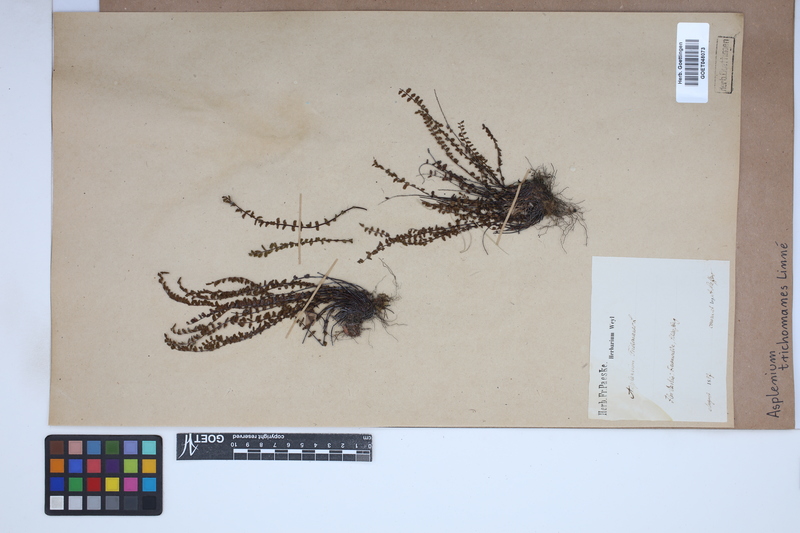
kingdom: Plantae
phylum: Tracheophyta
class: Polypodiopsida
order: Polypodiales
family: Aspleniaceae
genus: Asplenium
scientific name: Asplenium trichomanes
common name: Maidenhair spleenwort
